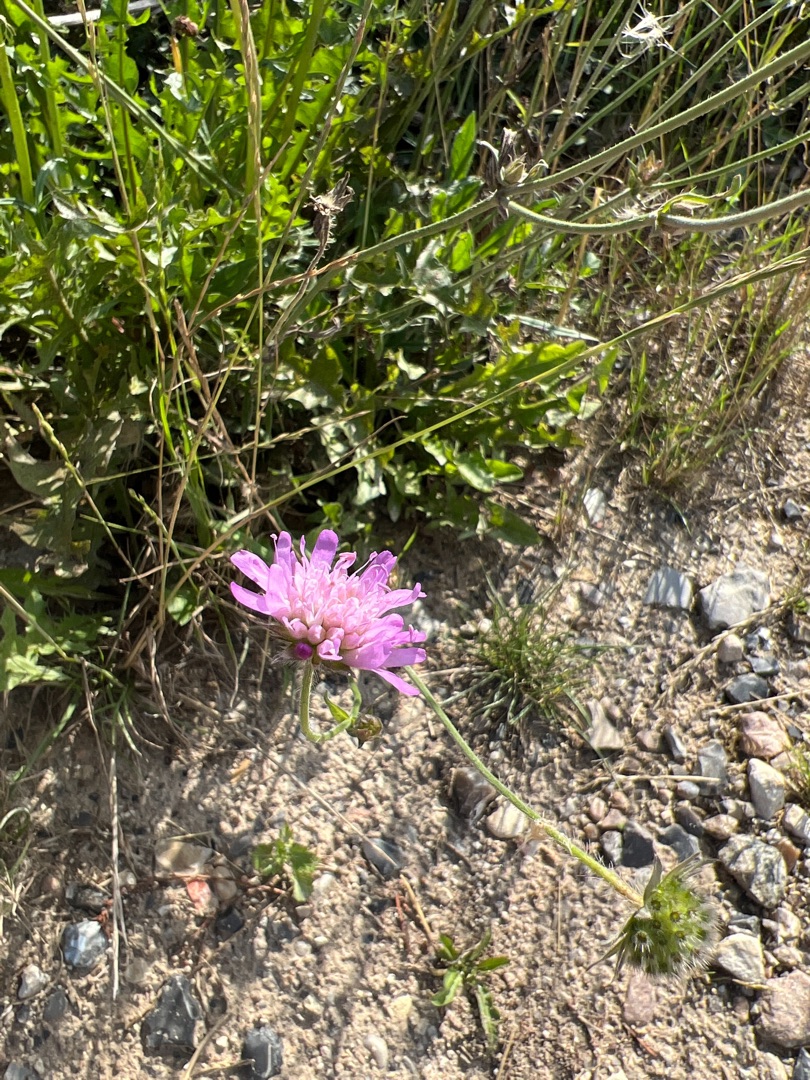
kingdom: Plantae
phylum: Tracheophyta
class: Magnoliopsida
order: Dipsacales
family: Caprifoliaceae
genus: Knautia
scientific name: Knautia arvensis
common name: Blåhat
